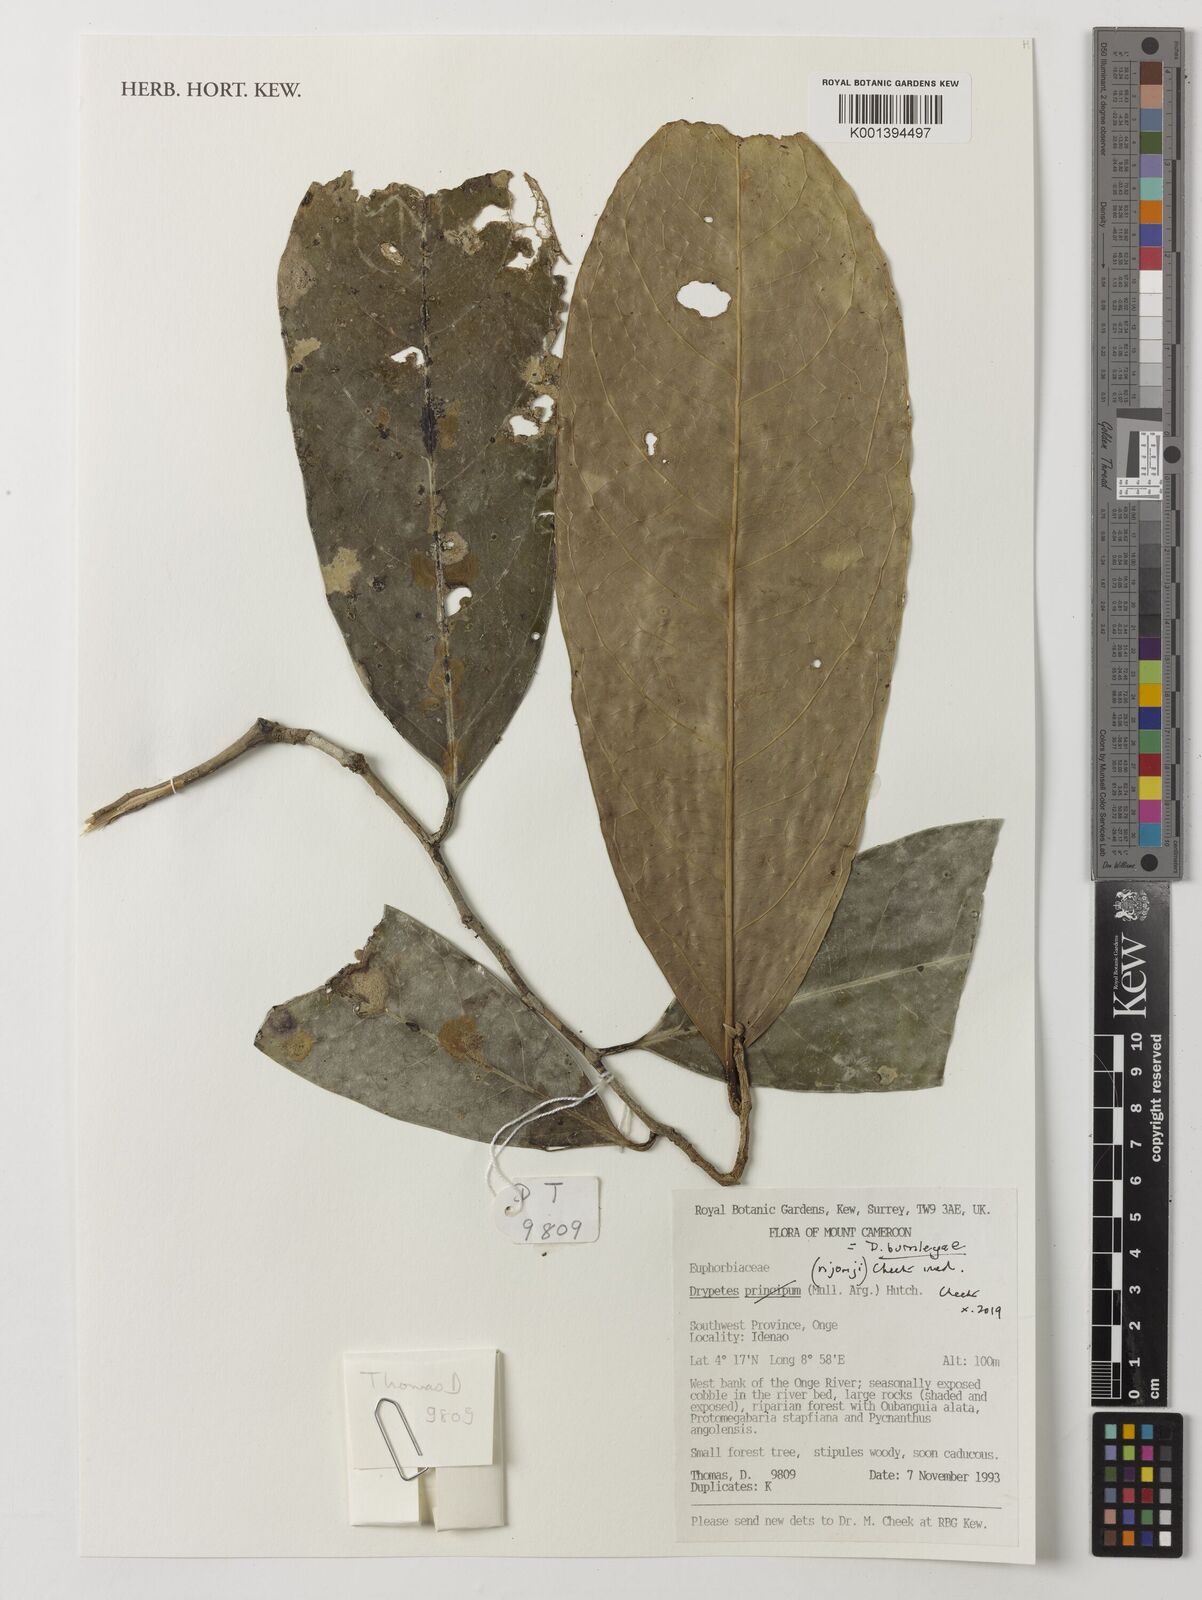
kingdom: Plantae
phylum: Tracheophyta
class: Magnoliopsida
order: Malpighiales
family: Putranjivaceae
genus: Drypetes
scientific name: Drypetes
